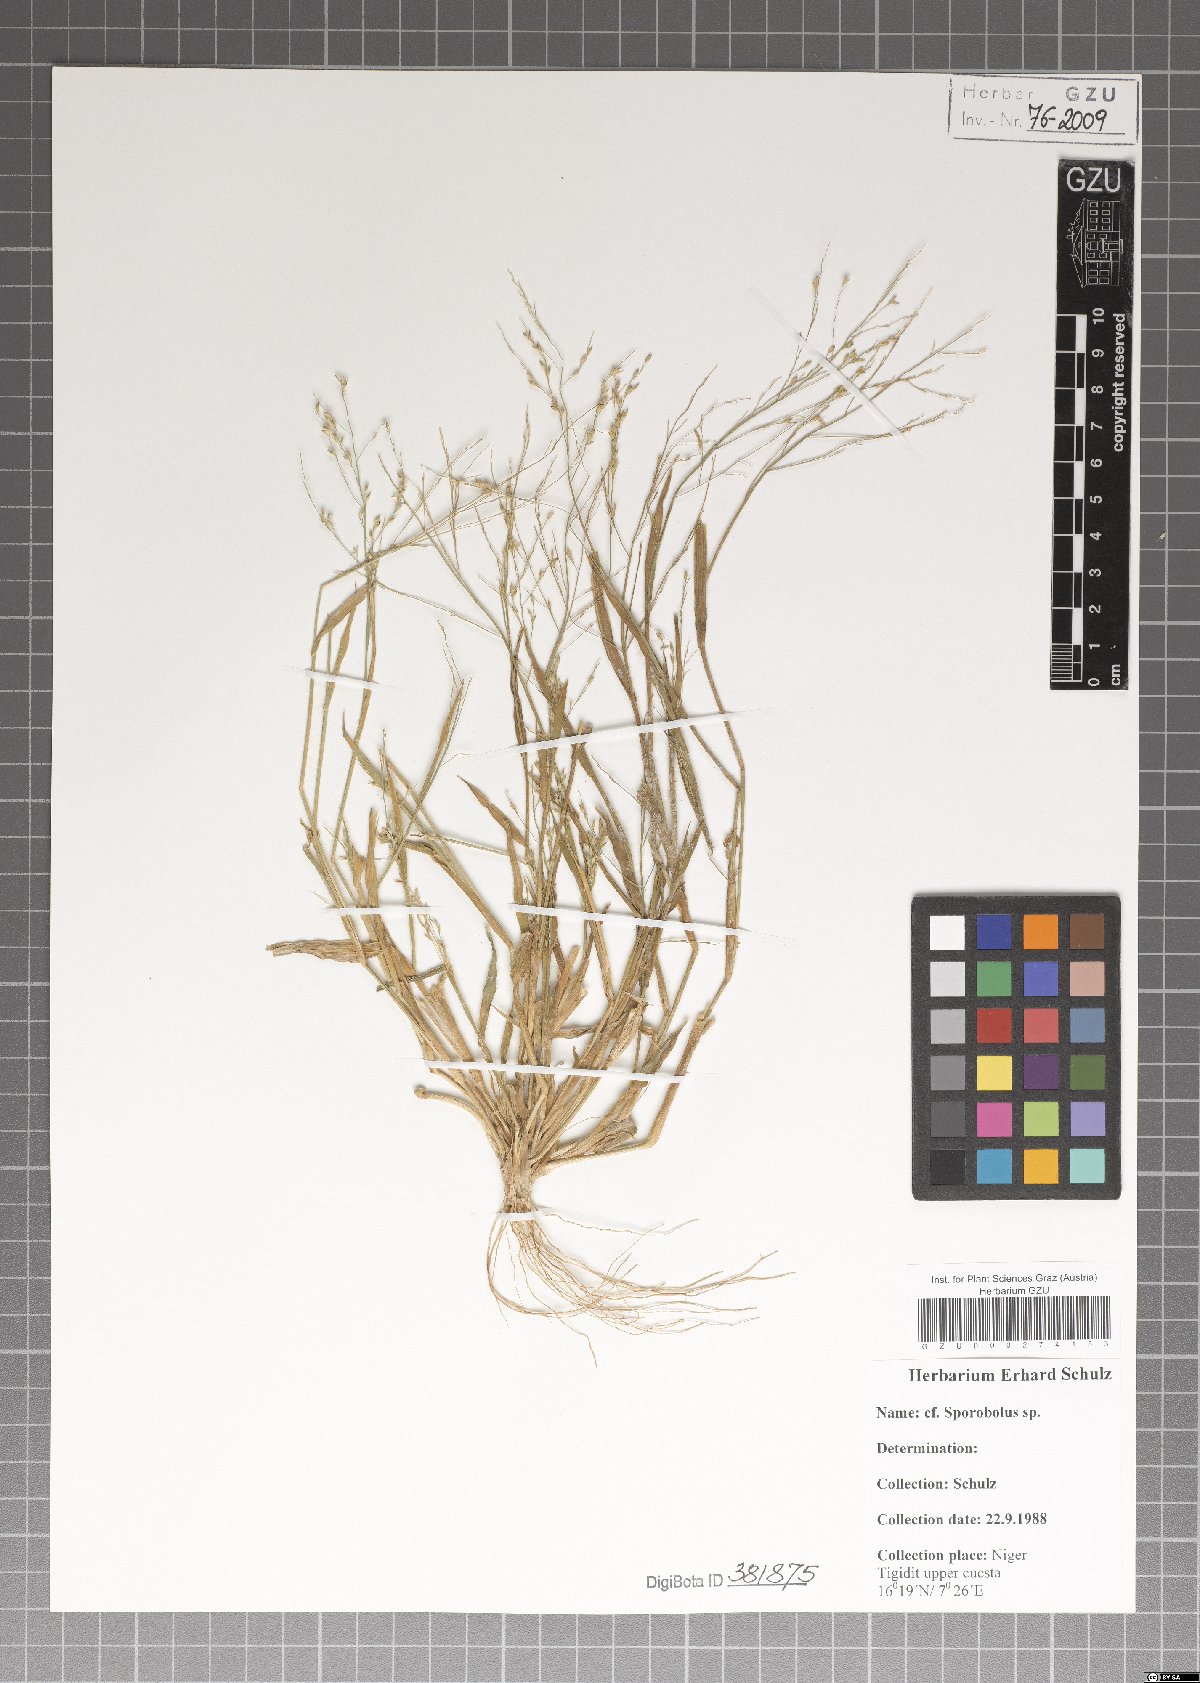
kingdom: Plantae
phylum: Tracheophyta
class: Liliopsida
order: Poales
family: Poaceae
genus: Sporobolus
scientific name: Sporobolus
